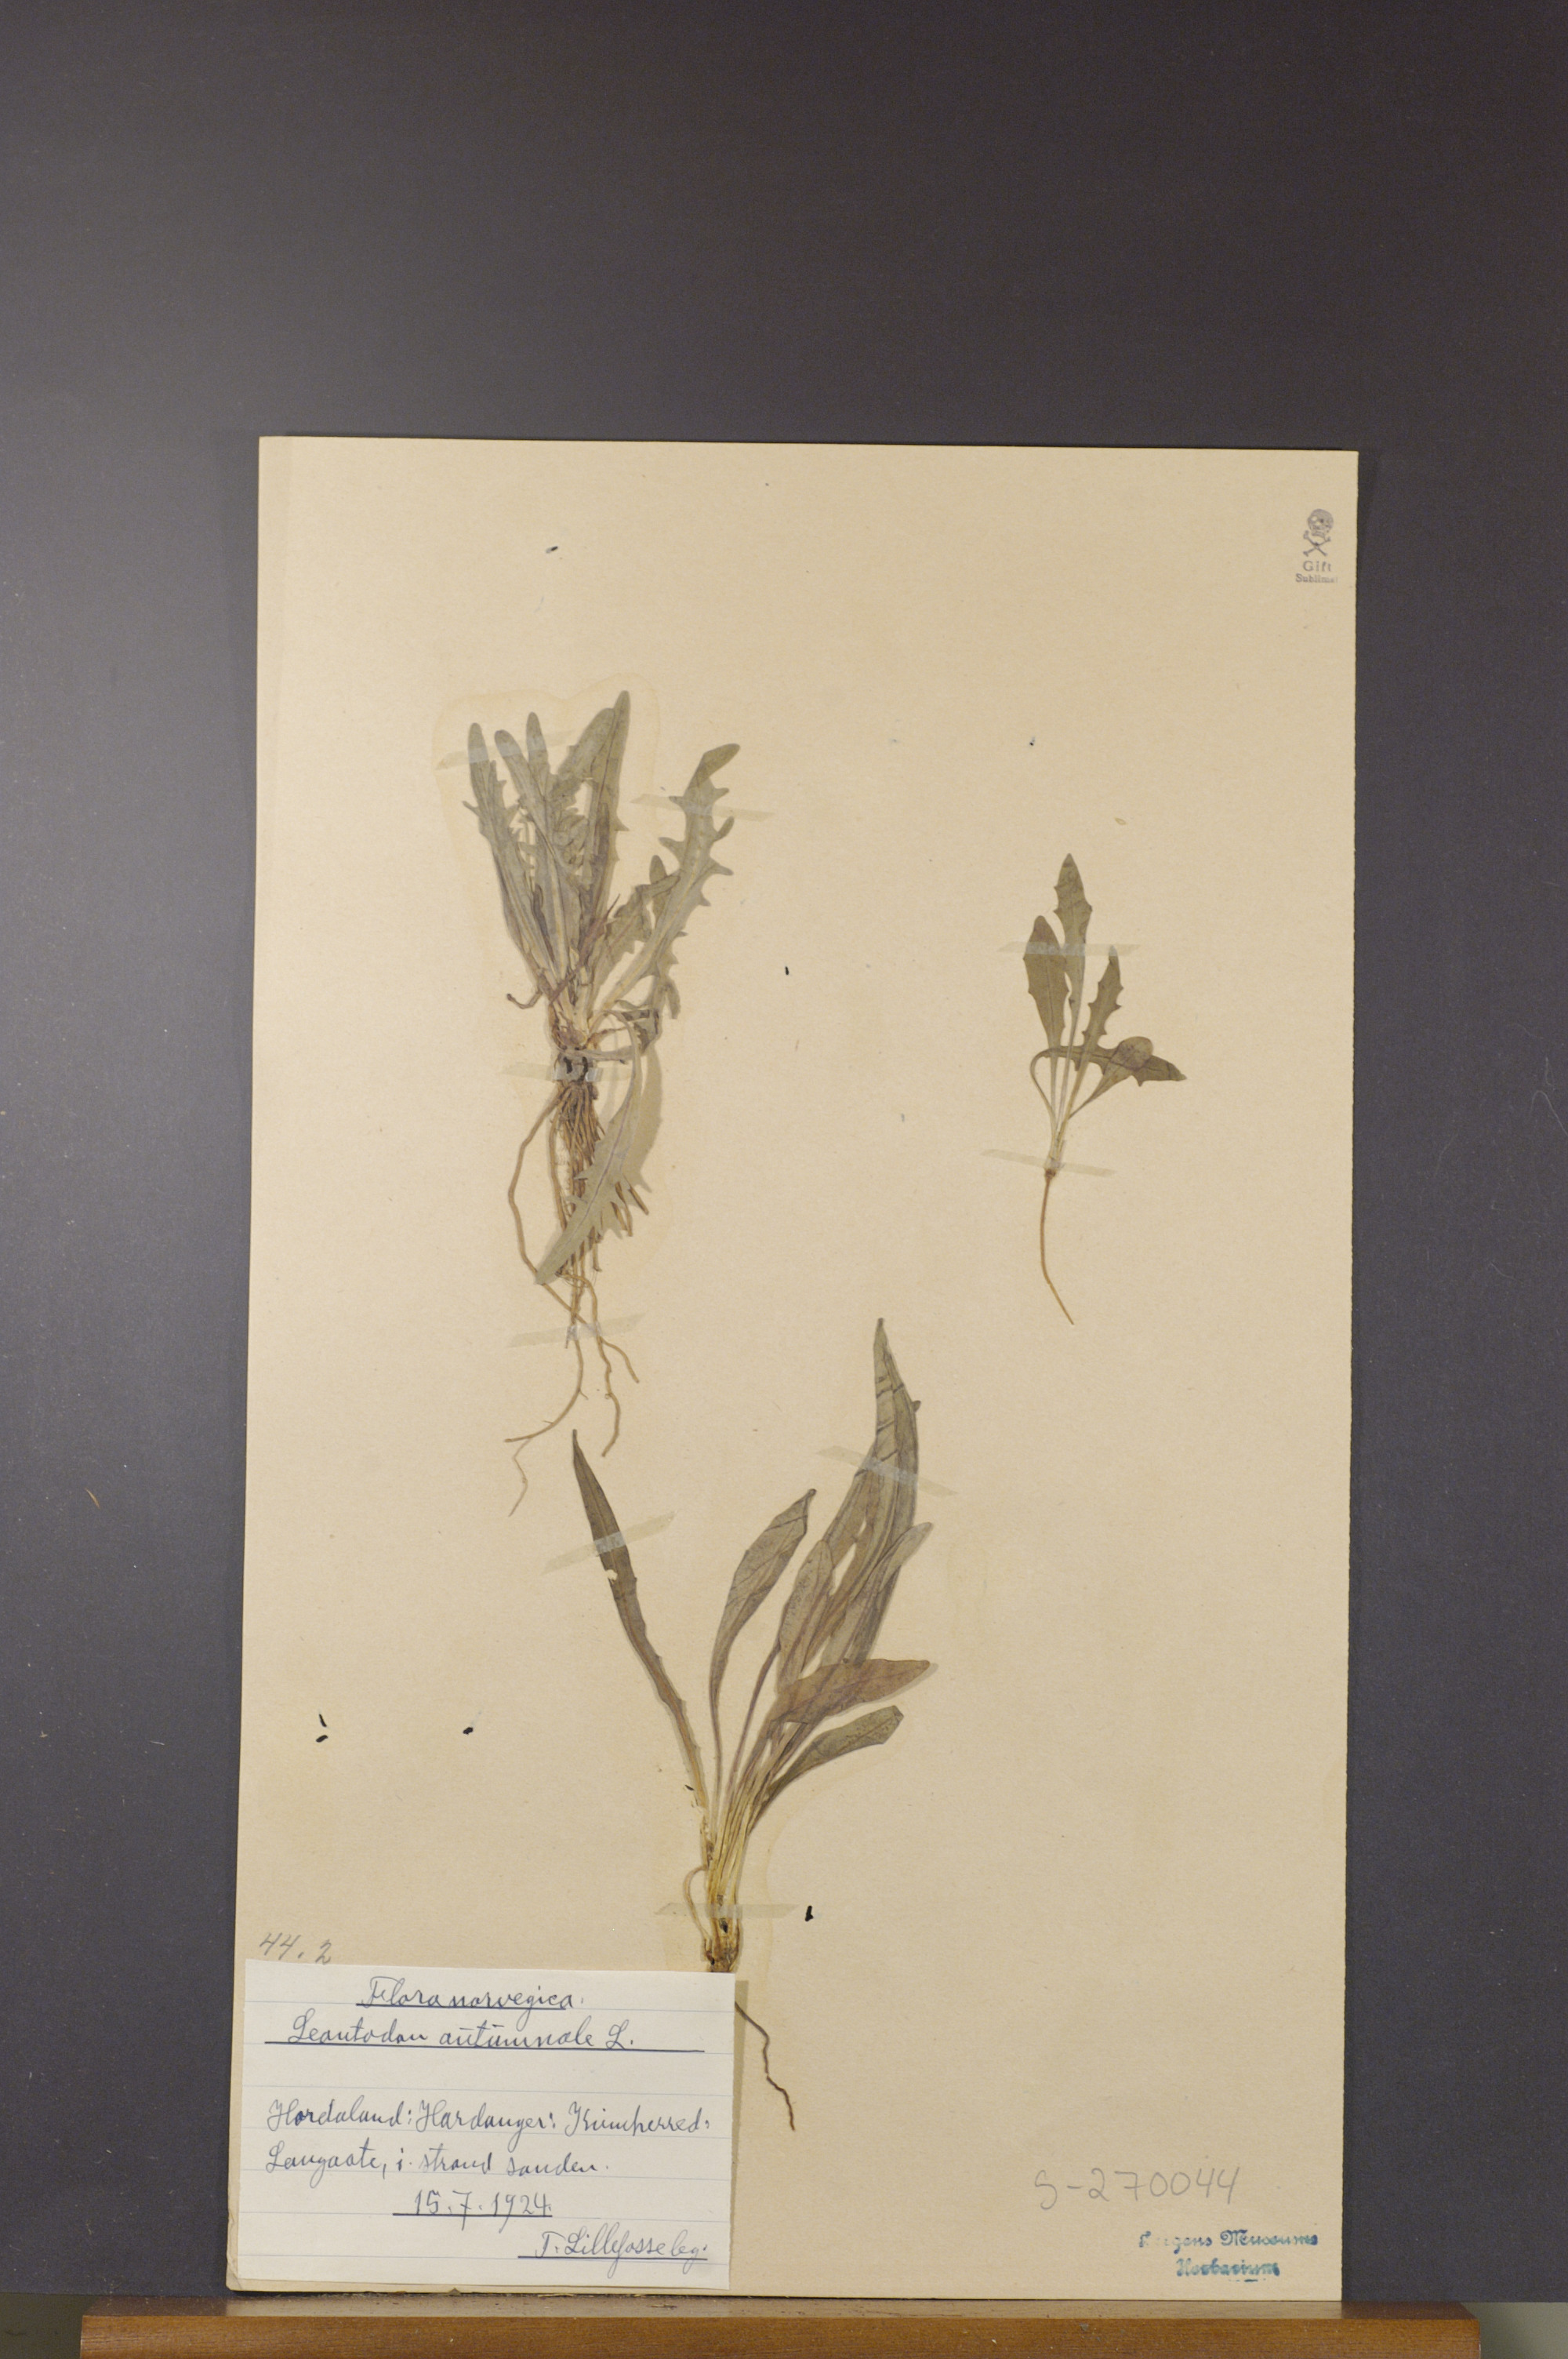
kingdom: Plantae
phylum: Tracheophyta
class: Magnoliopsida
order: Asterales
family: Asteraceae
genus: Scorzoneroides
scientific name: Scorzoneroides autumnalis
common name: Autumn hawkbit
